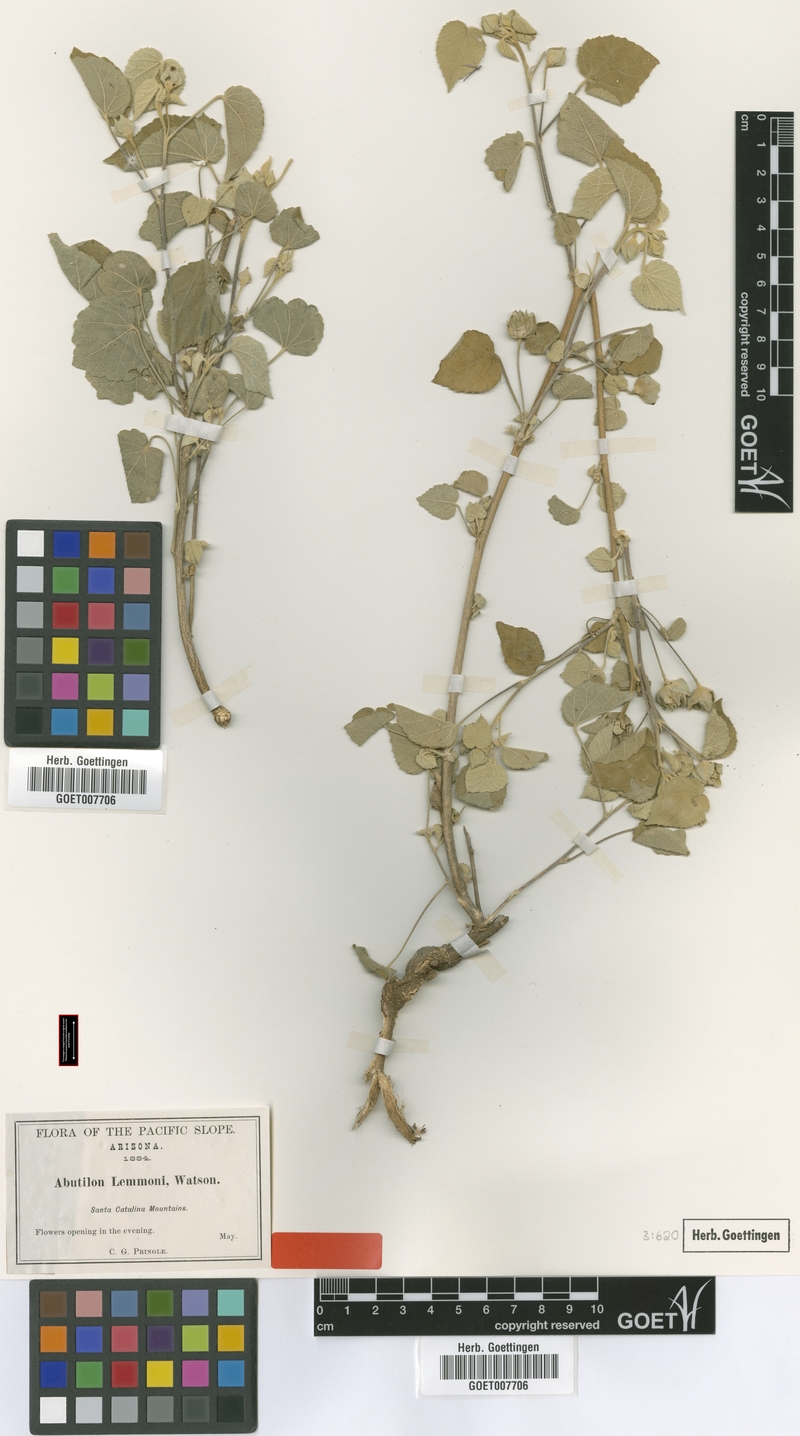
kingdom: Plantae
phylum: Tracheophyta
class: Magnoliopsida
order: Malvales
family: Malvaceae
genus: Abutilon
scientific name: Abutilon californicum
